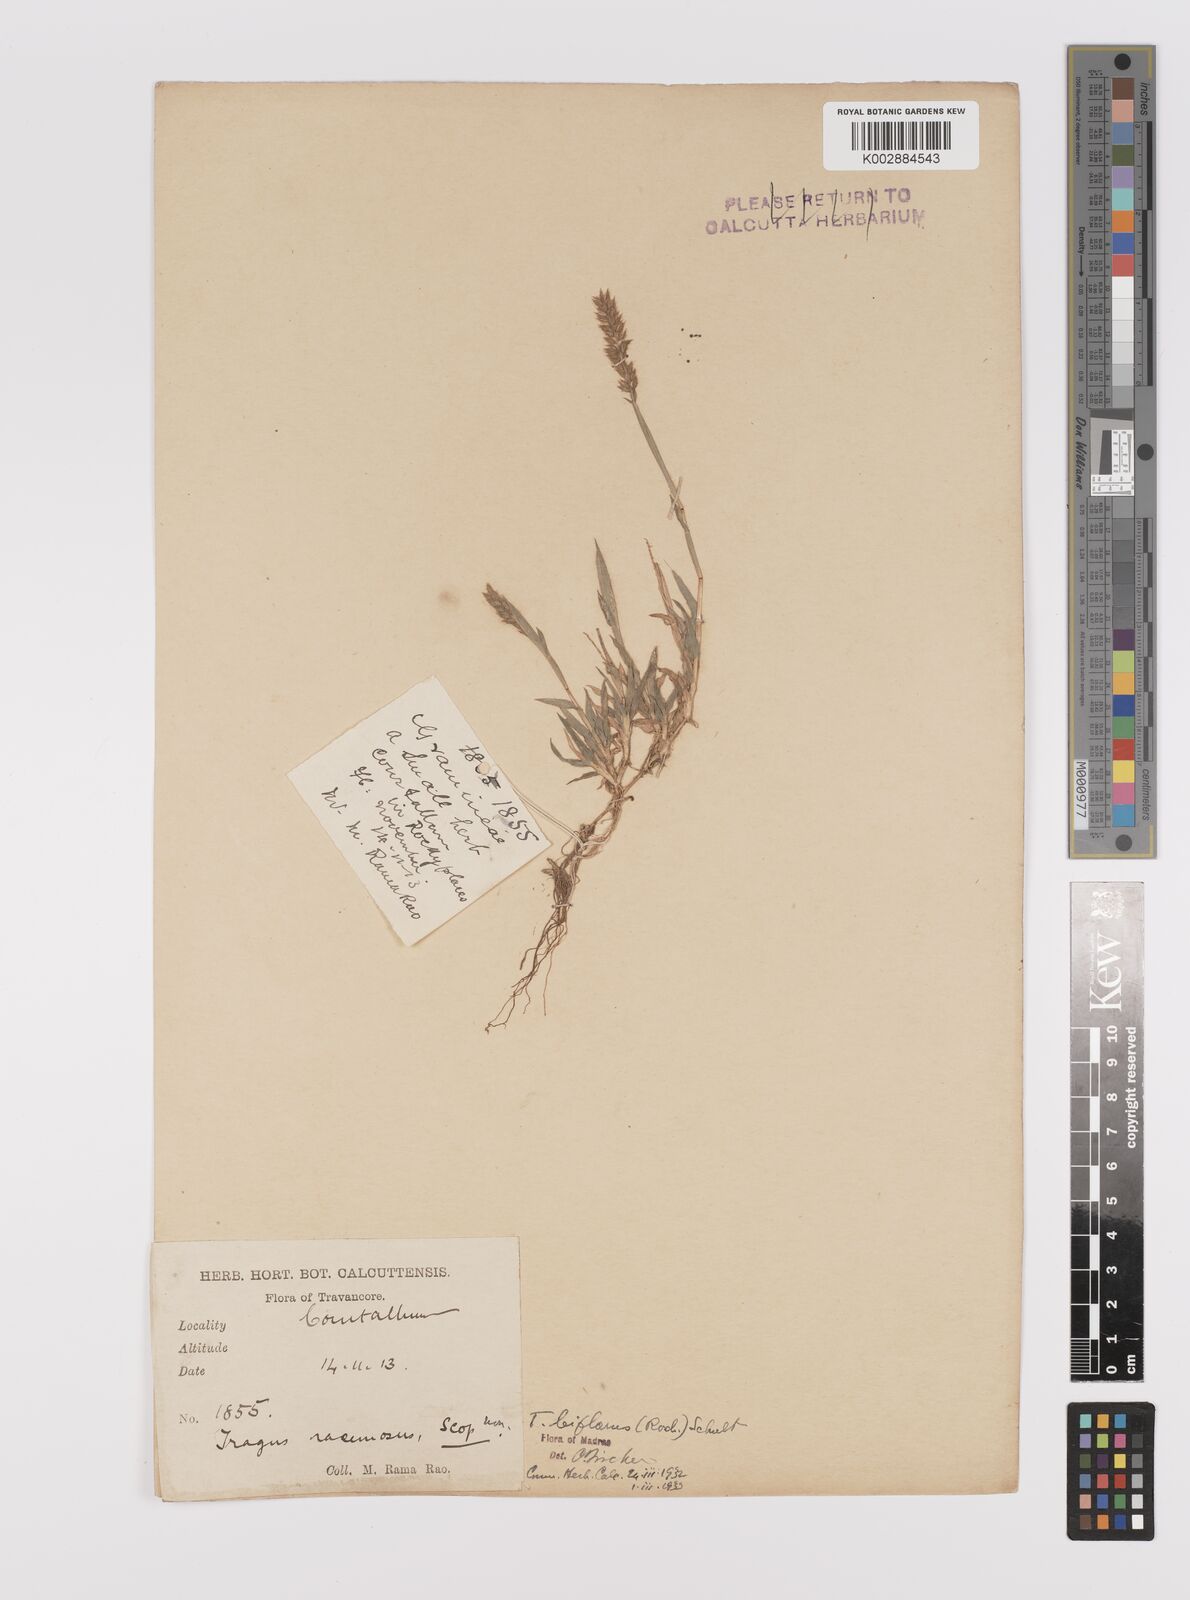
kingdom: Plantae
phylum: Tracheophyta
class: Liliopsida
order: Poales
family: Poaceae
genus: Tragus
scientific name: Tragus mongolorum
